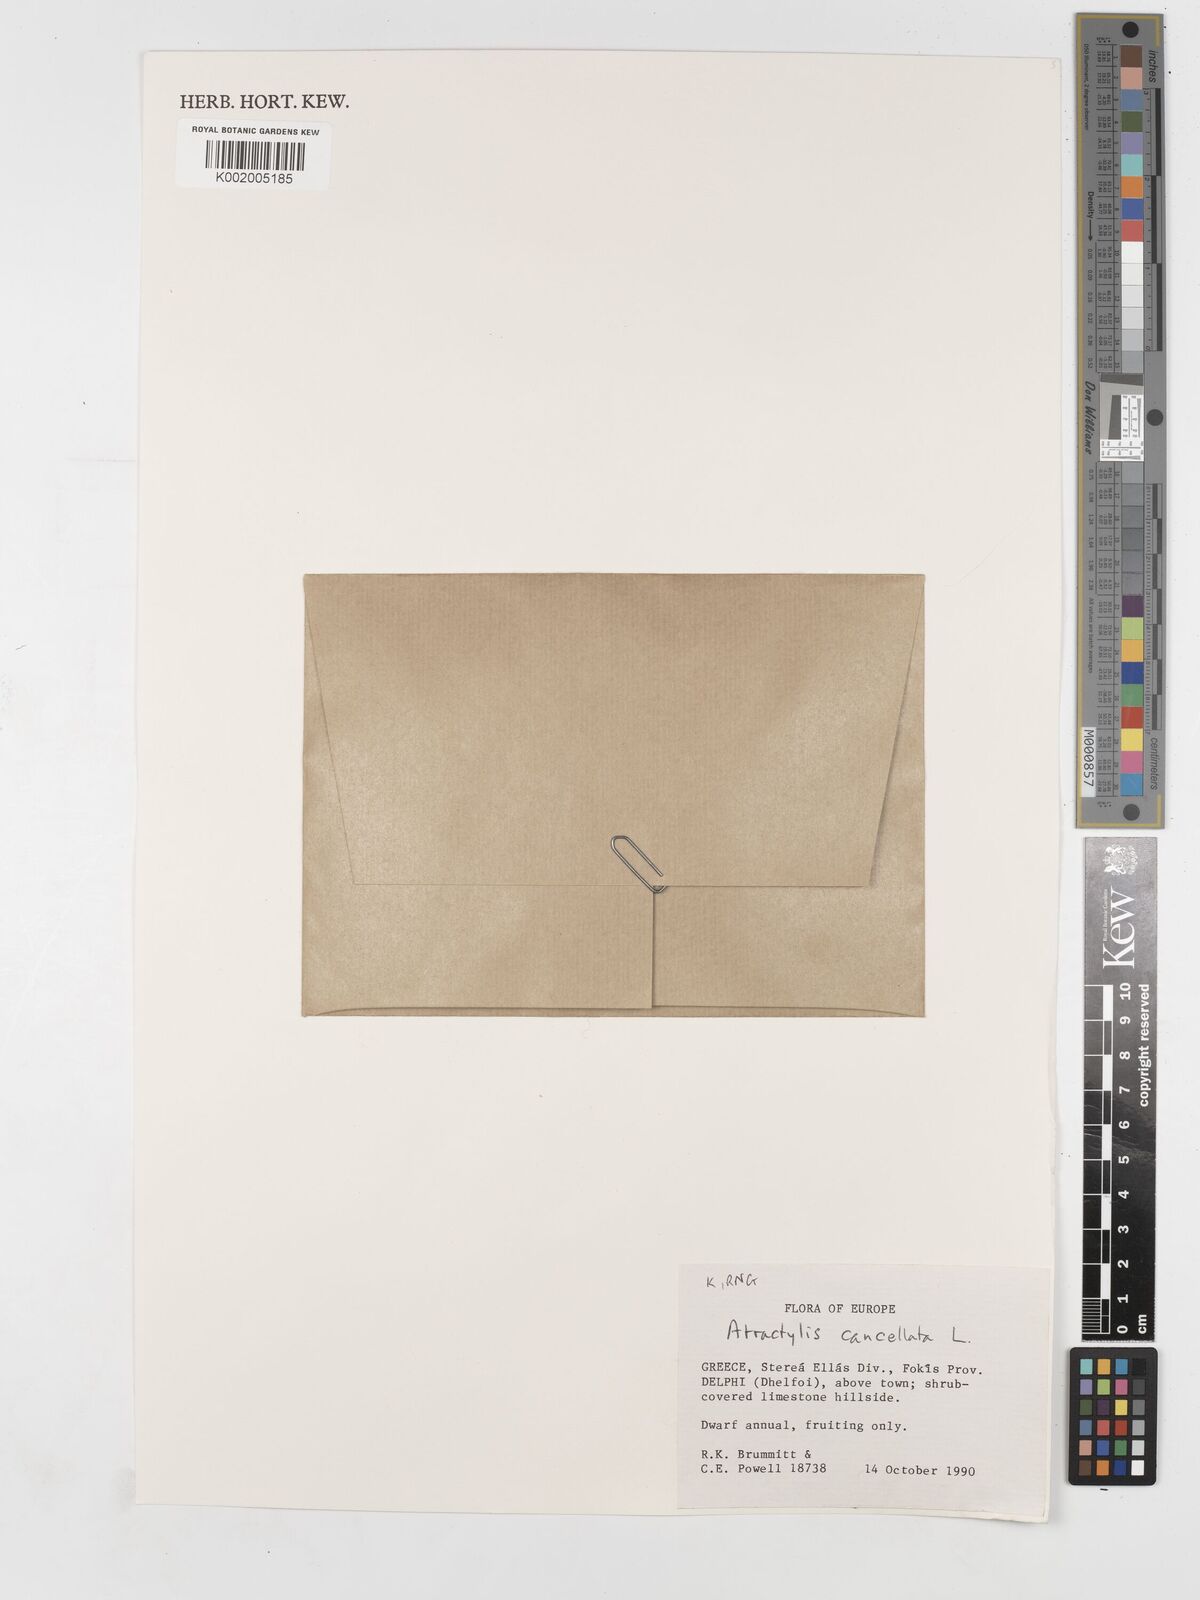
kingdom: Plantae
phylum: Tracheophyta
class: Magnoliopsida
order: Asterales
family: Asteraceae
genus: Atractylis
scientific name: Atractylis cancellata
